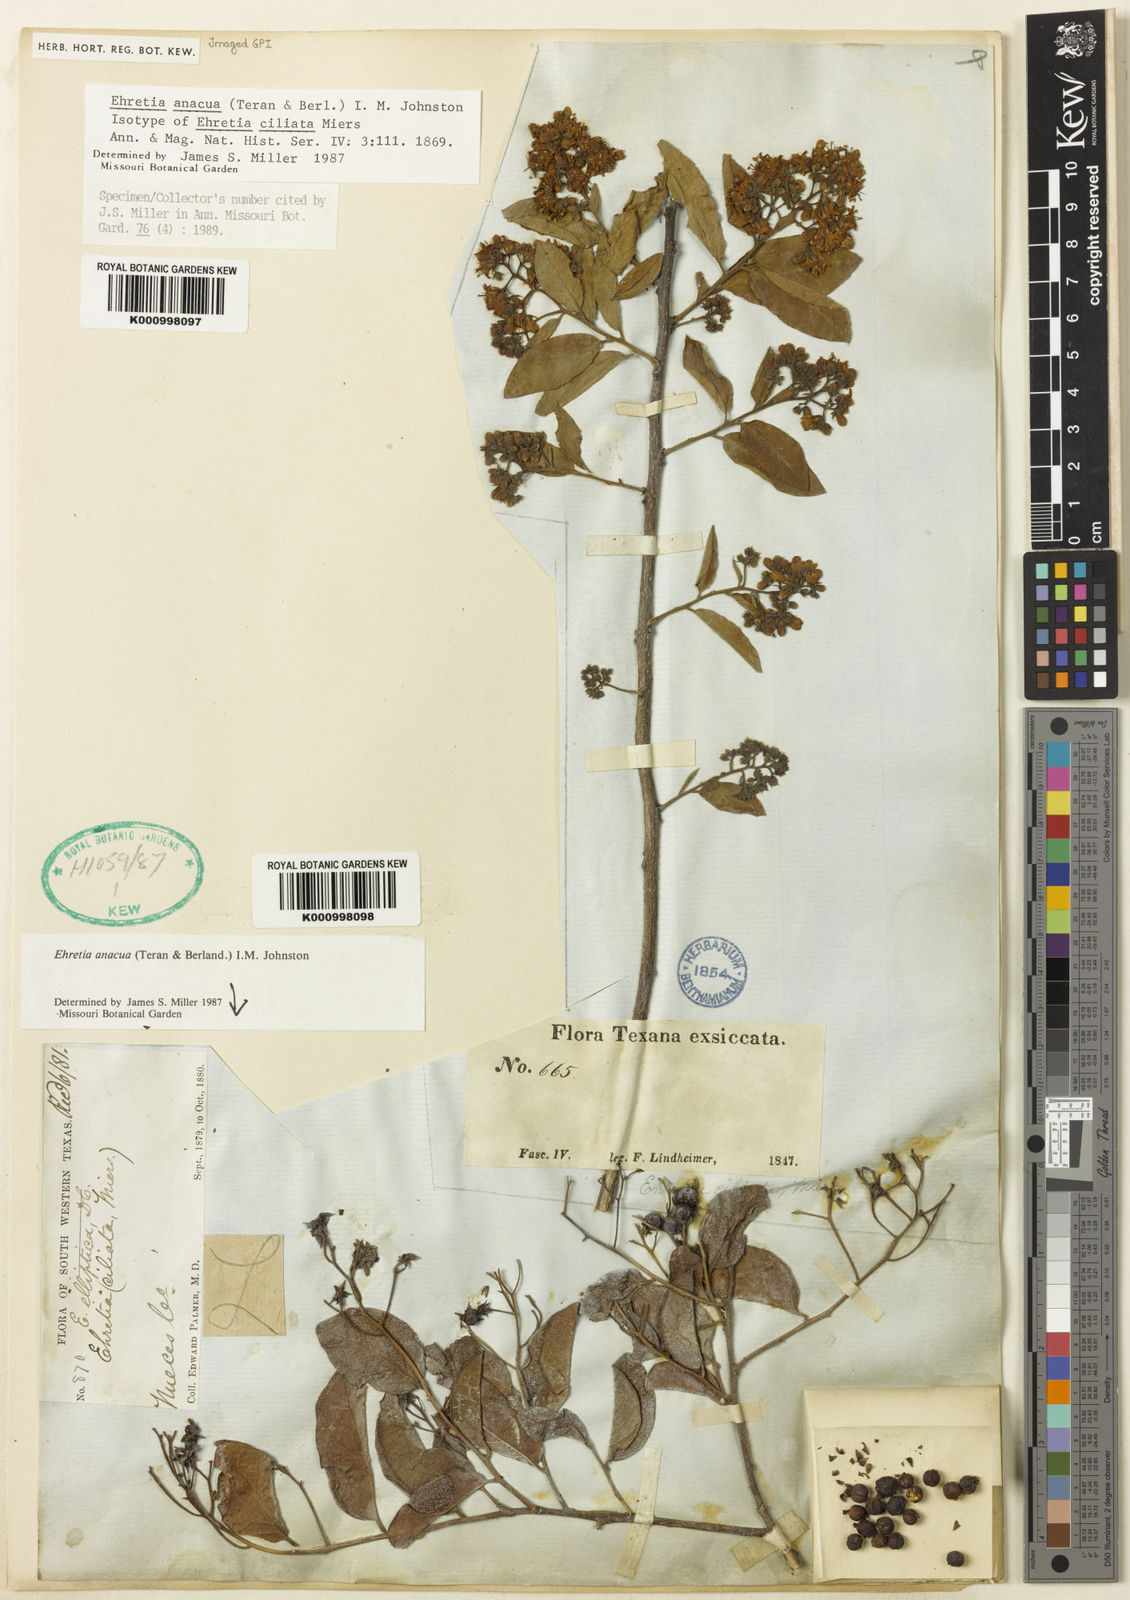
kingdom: Plantae
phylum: Tracheophyta
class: Magnoliopsida
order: Boraginales
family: Ehretiaceae
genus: Ehretia
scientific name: Ehretia anacua
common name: Sugarberry
